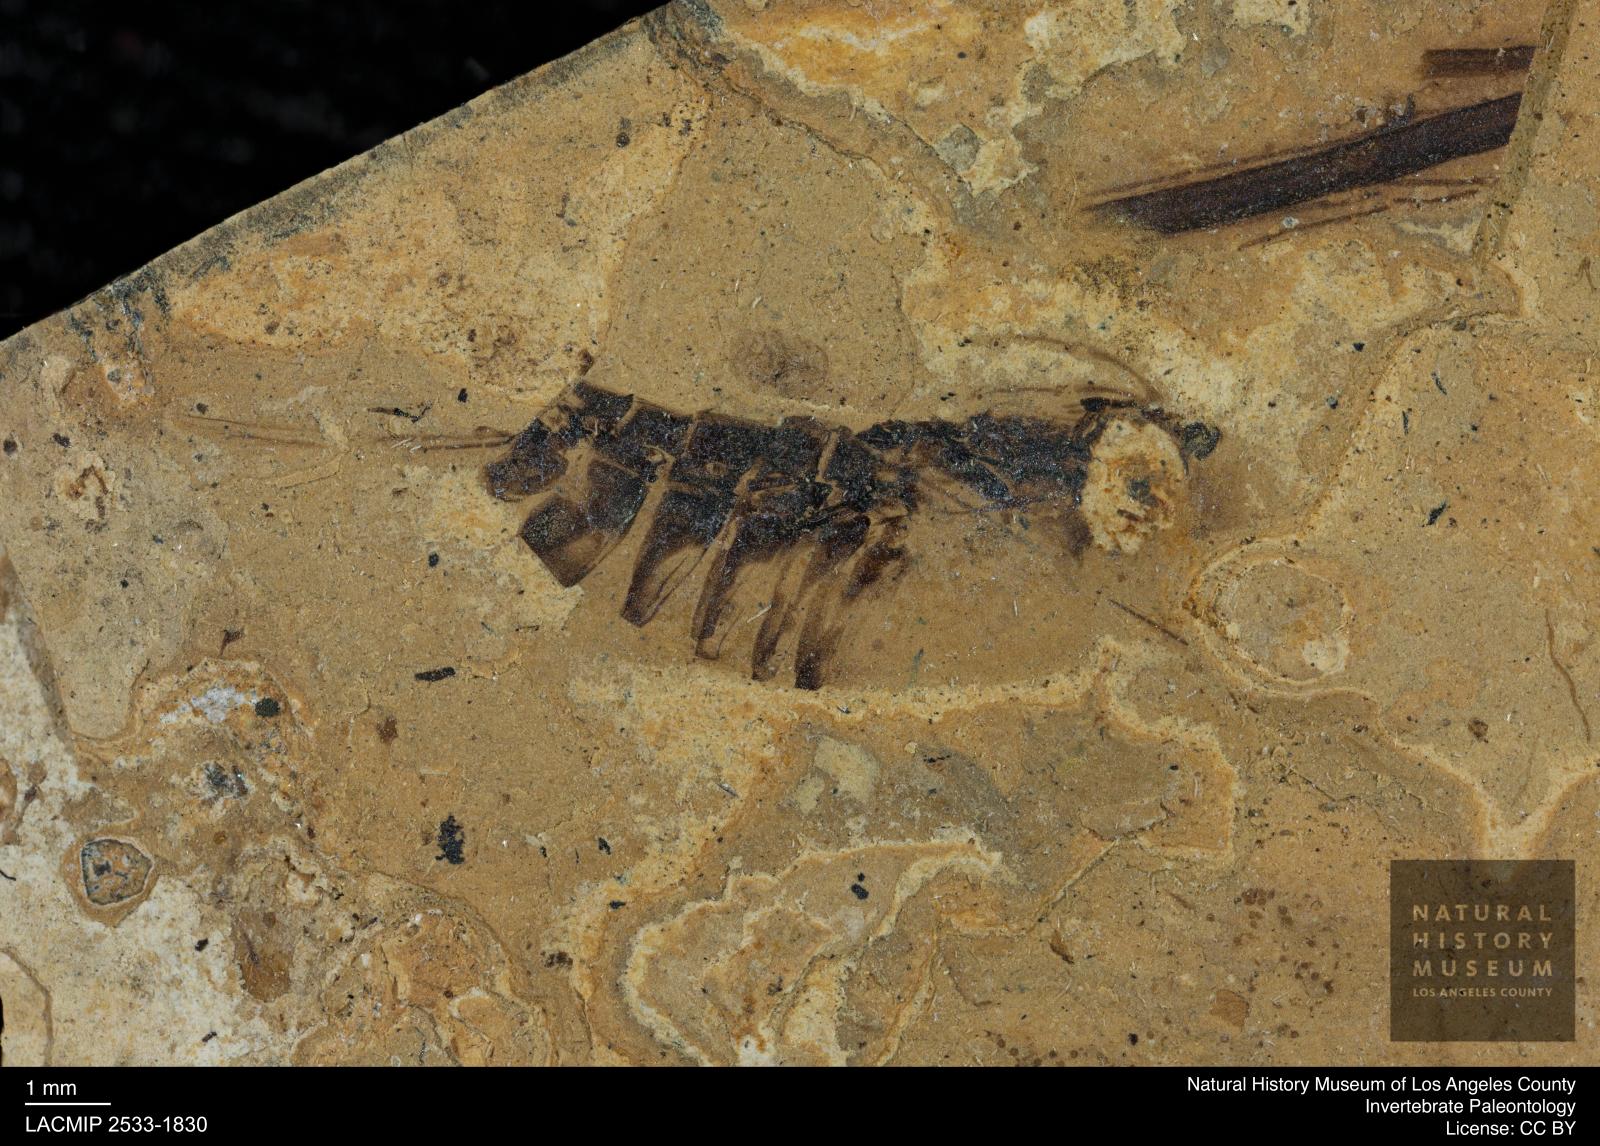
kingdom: Animalia
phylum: Arthropoda
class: Insecta
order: Hemiptera
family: Notonectidae
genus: Notonecta
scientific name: Notonecta
